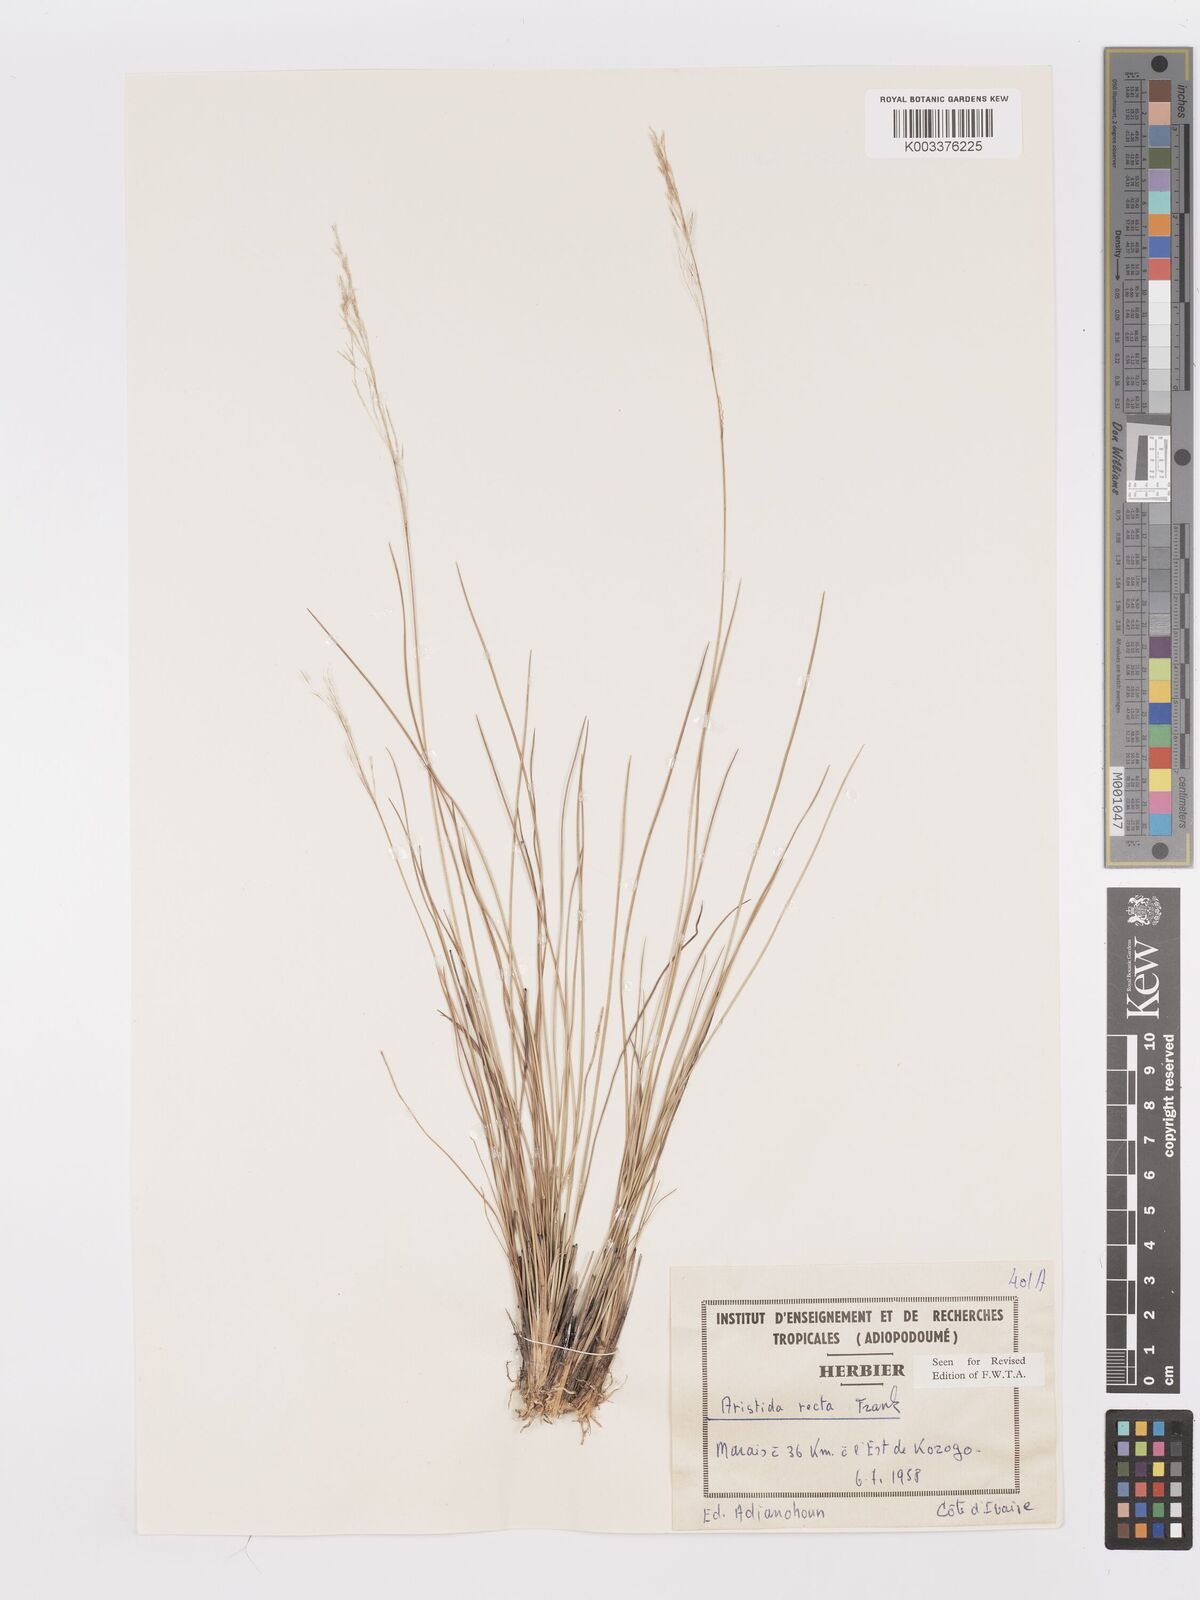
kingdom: Plantae
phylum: Tracheophyta
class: Liliopsida
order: Poales
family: Poaceae
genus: Aristida
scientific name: Aristida recta
